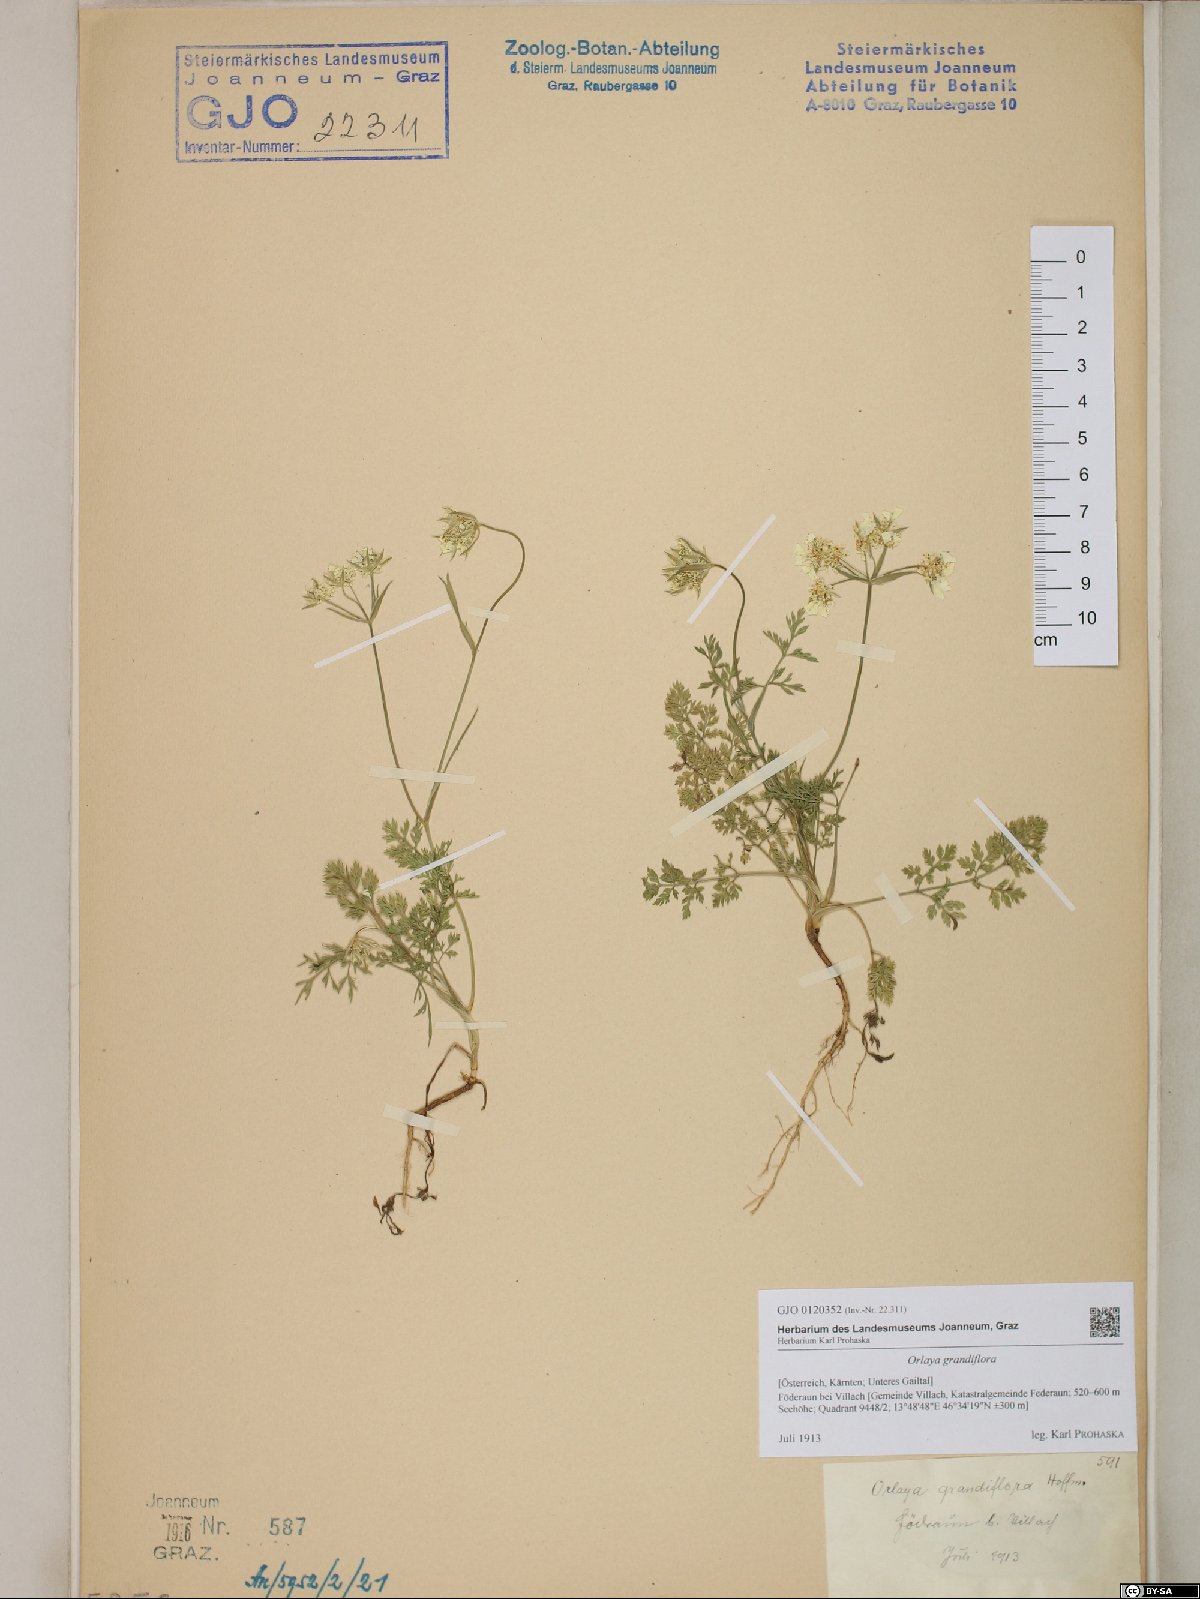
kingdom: Plantae
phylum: Tracheophyta
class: Magnoliopsida
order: Apiales
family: Apiaceae
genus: Orlaya
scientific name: Orlaya grandiflora
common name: White lace flower
